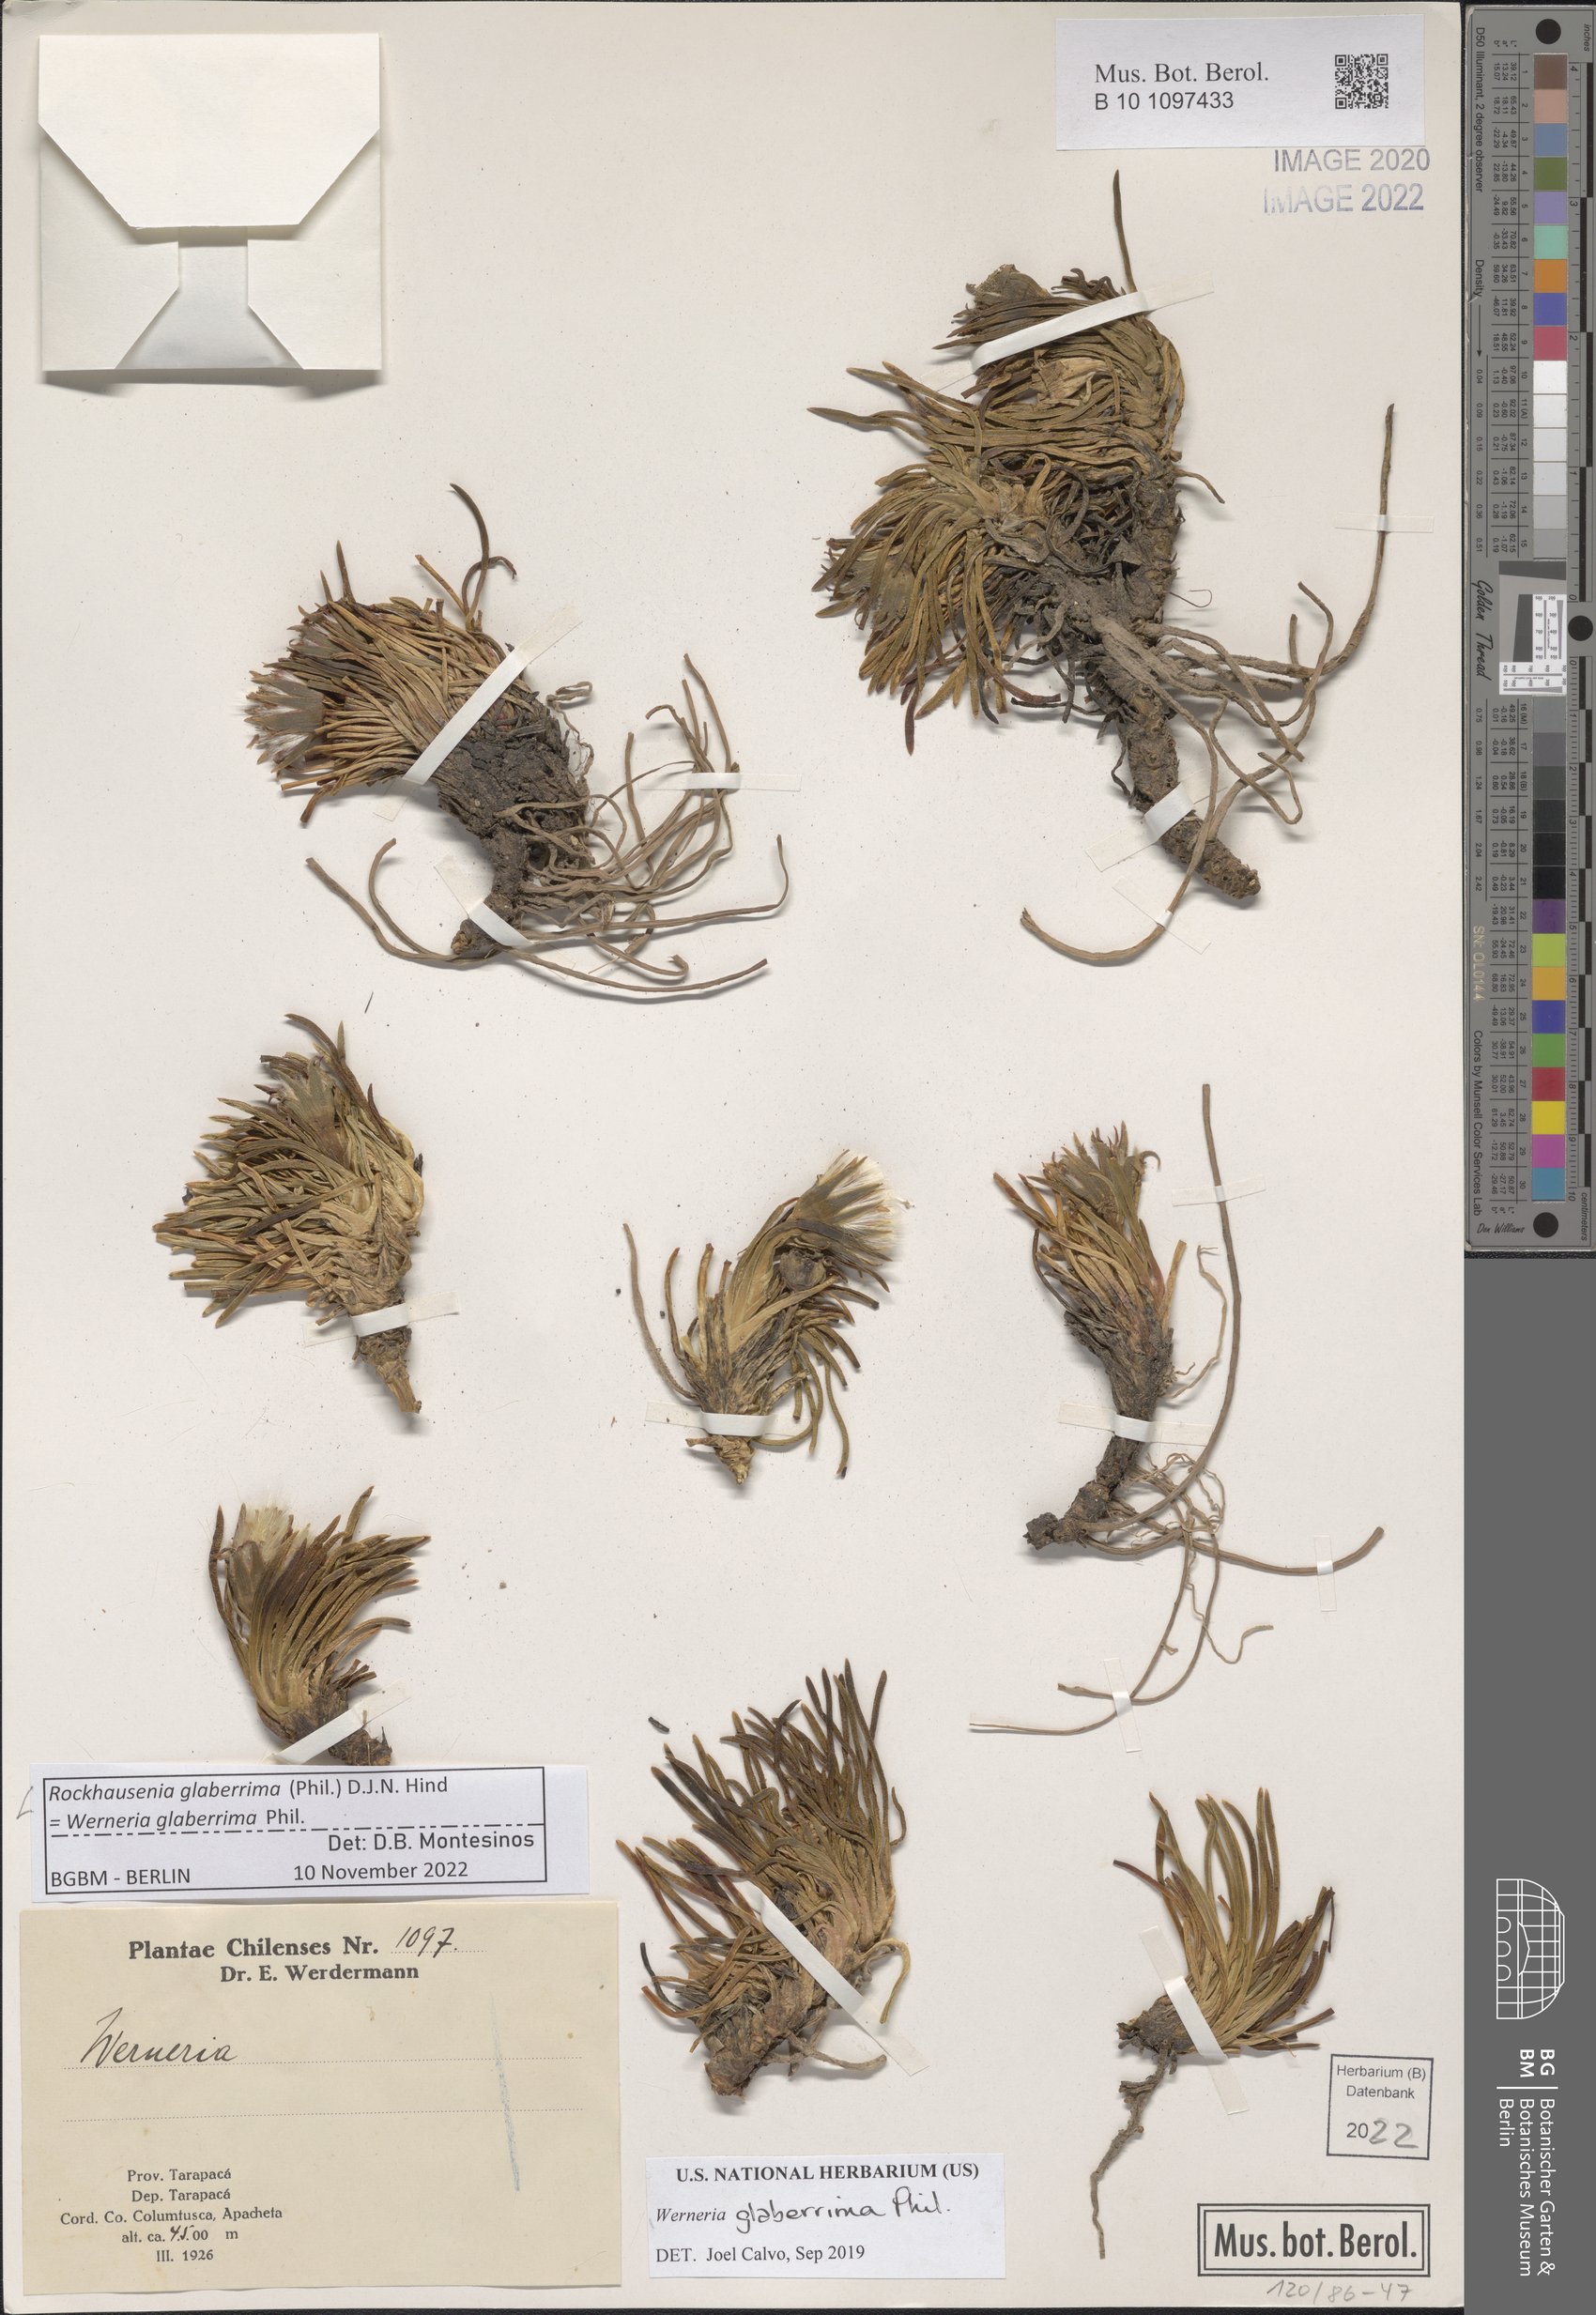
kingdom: Plantae
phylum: Tracheophyta
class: Magnoliopsida
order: Asterales
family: Asteraceae
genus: Rockhausenia
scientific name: Rockhausenia glaberrima
